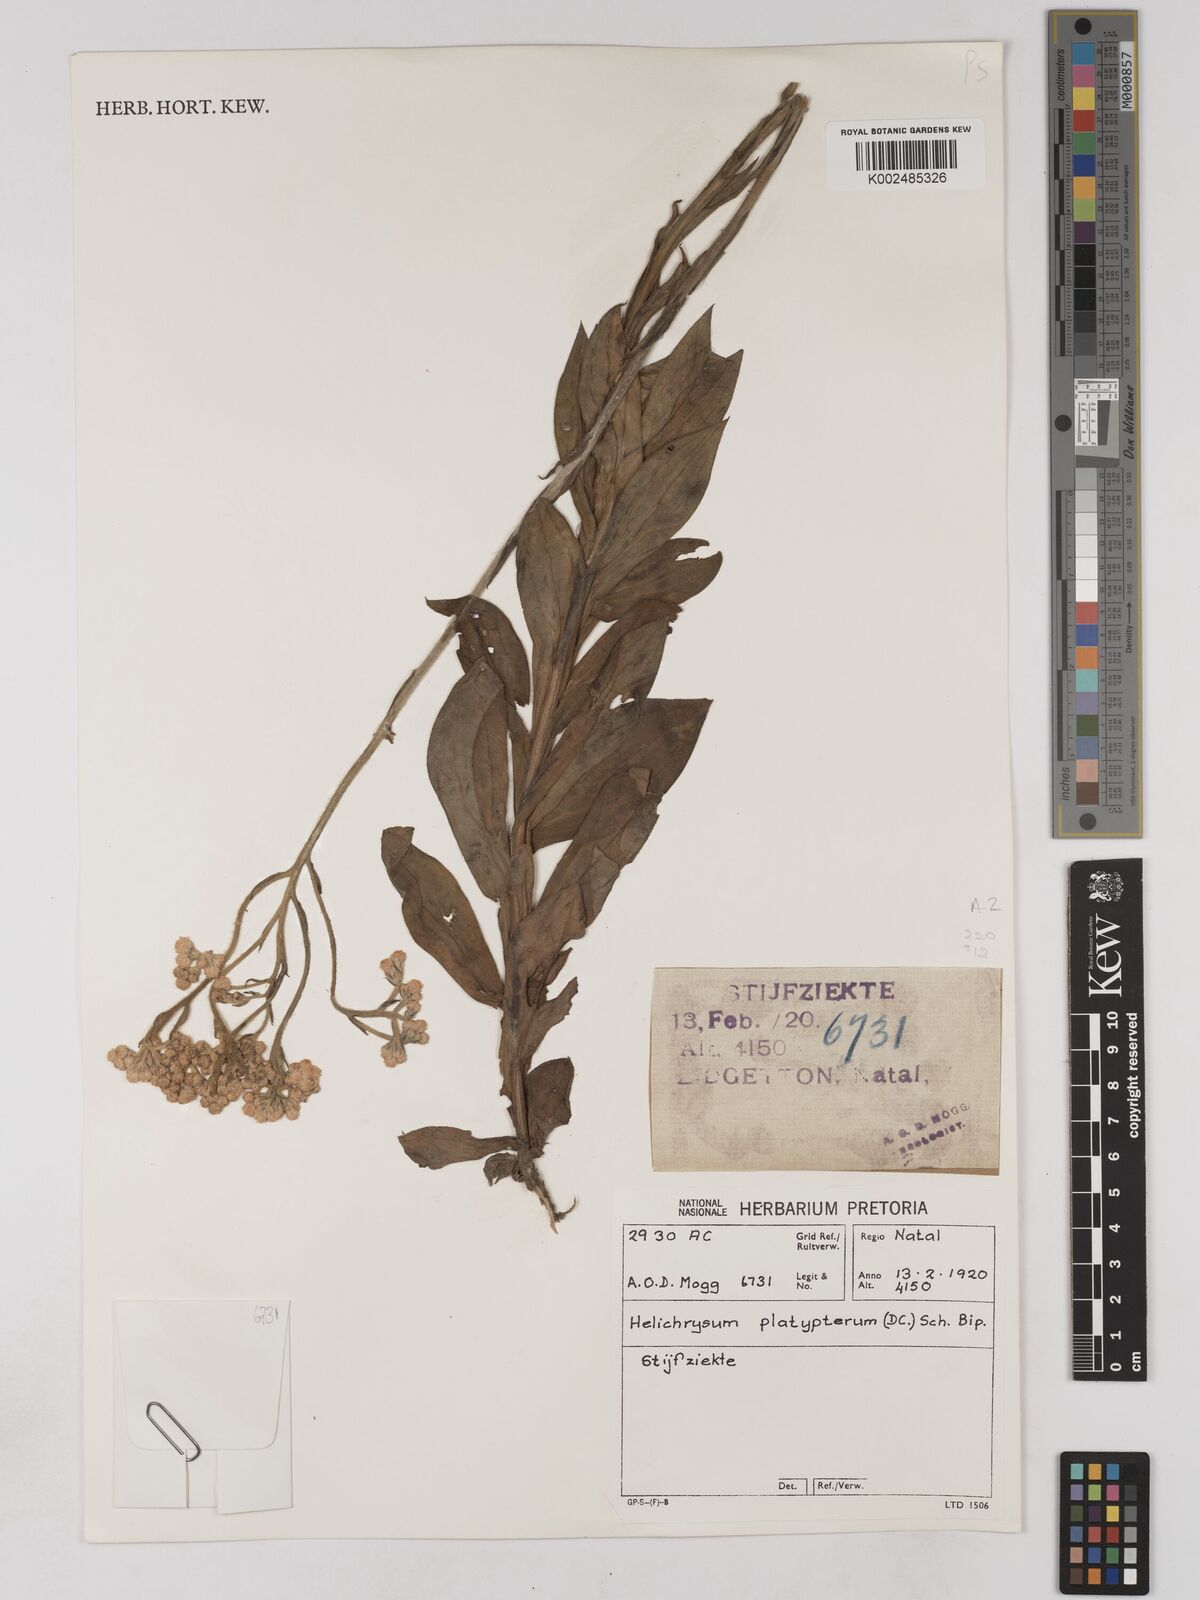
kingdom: Plantae
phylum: Tracheophyta
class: Magnoliopsida
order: Asterales
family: Asteraceae
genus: Helichrysum
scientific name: Helichrysum platypterum
